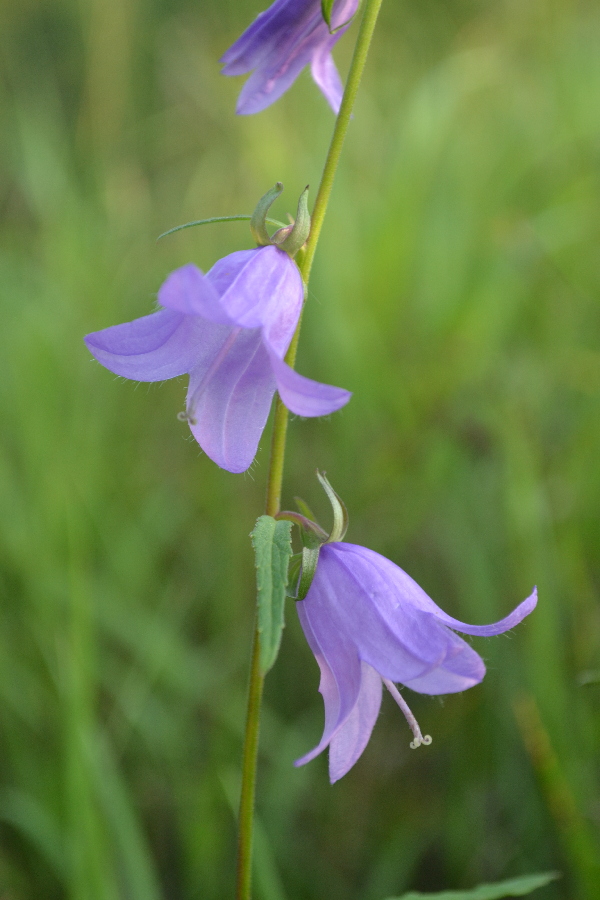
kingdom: Plantae
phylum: Tracheophyta
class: Magnoliopsida
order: Asterales
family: Campanulaceae
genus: Campanula
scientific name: Campanula rapunculoides
